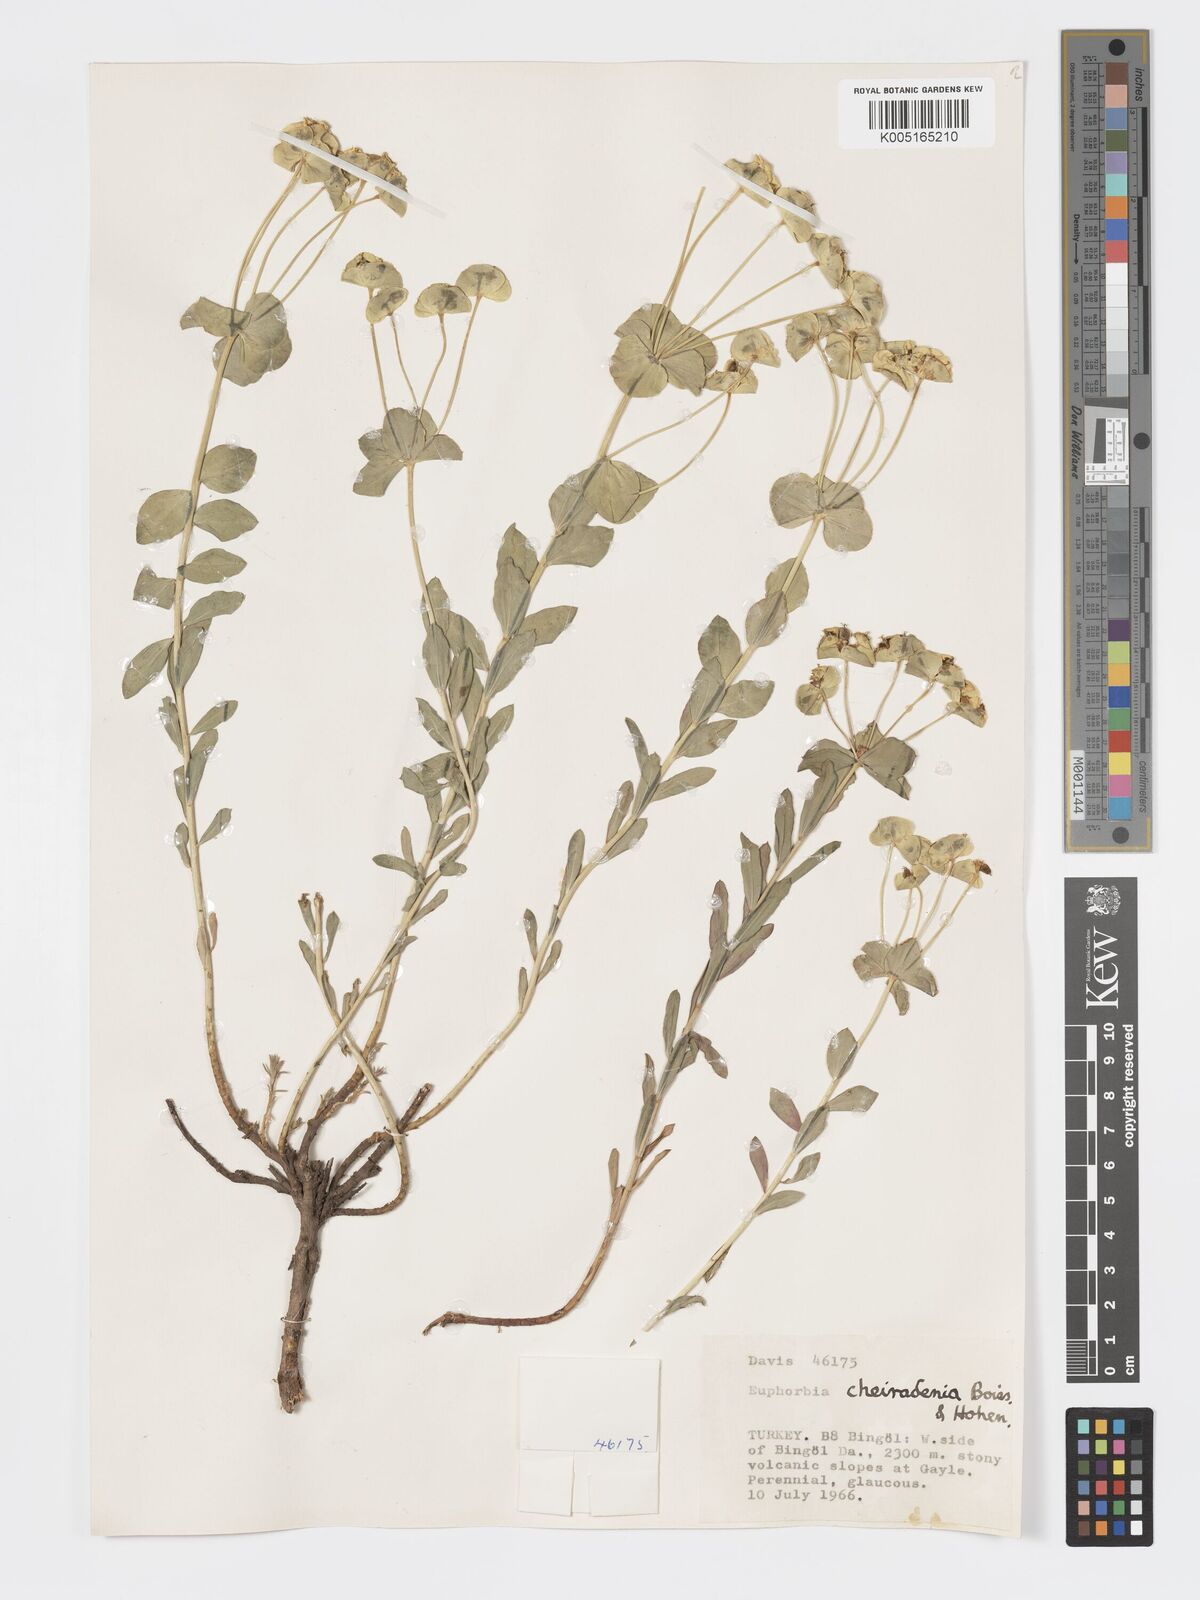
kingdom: Plantae
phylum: Tracheophyta
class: Magnoliopsida
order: Malpighiales
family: Euphorbiaceae
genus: Euphorbia
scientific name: Euphorbia cheiradenia
